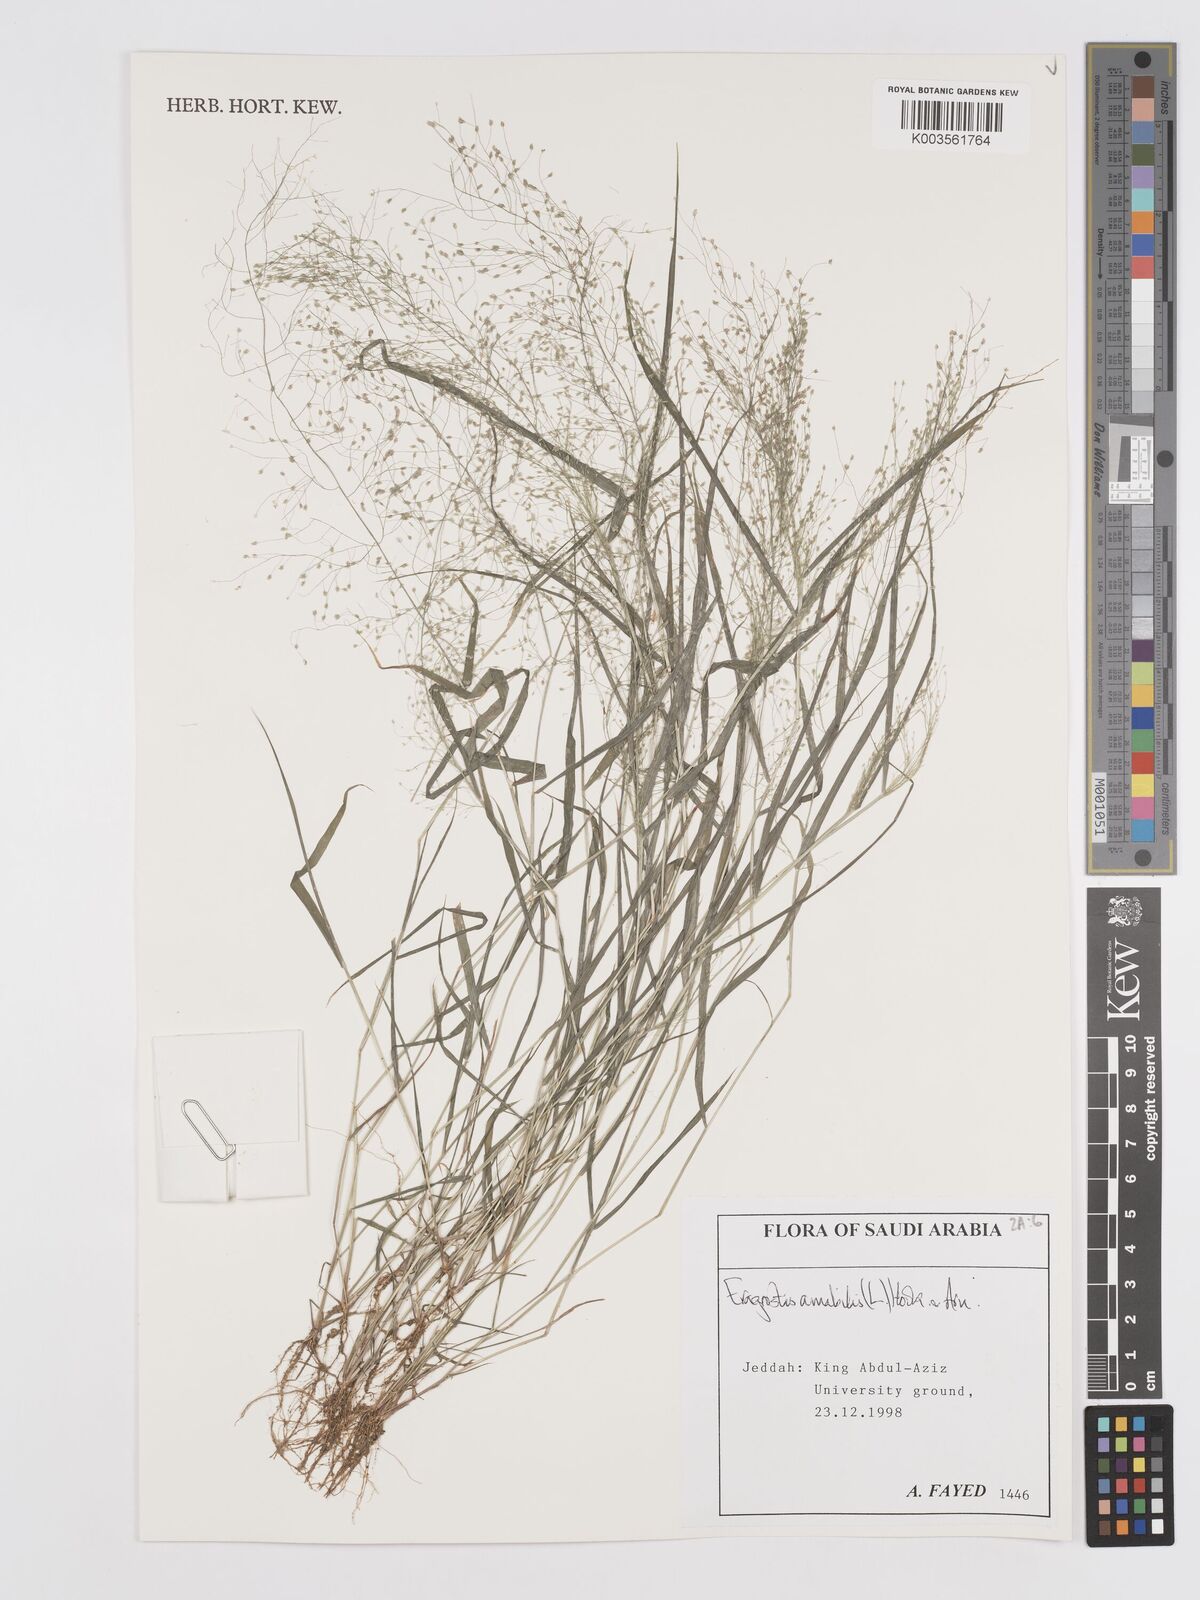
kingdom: Plantae
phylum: Tracheophyta
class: Liliopsida
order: Poales
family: Poaceae
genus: Eragrostis
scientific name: Eragrostis tenella
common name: Japanese lovegrass
